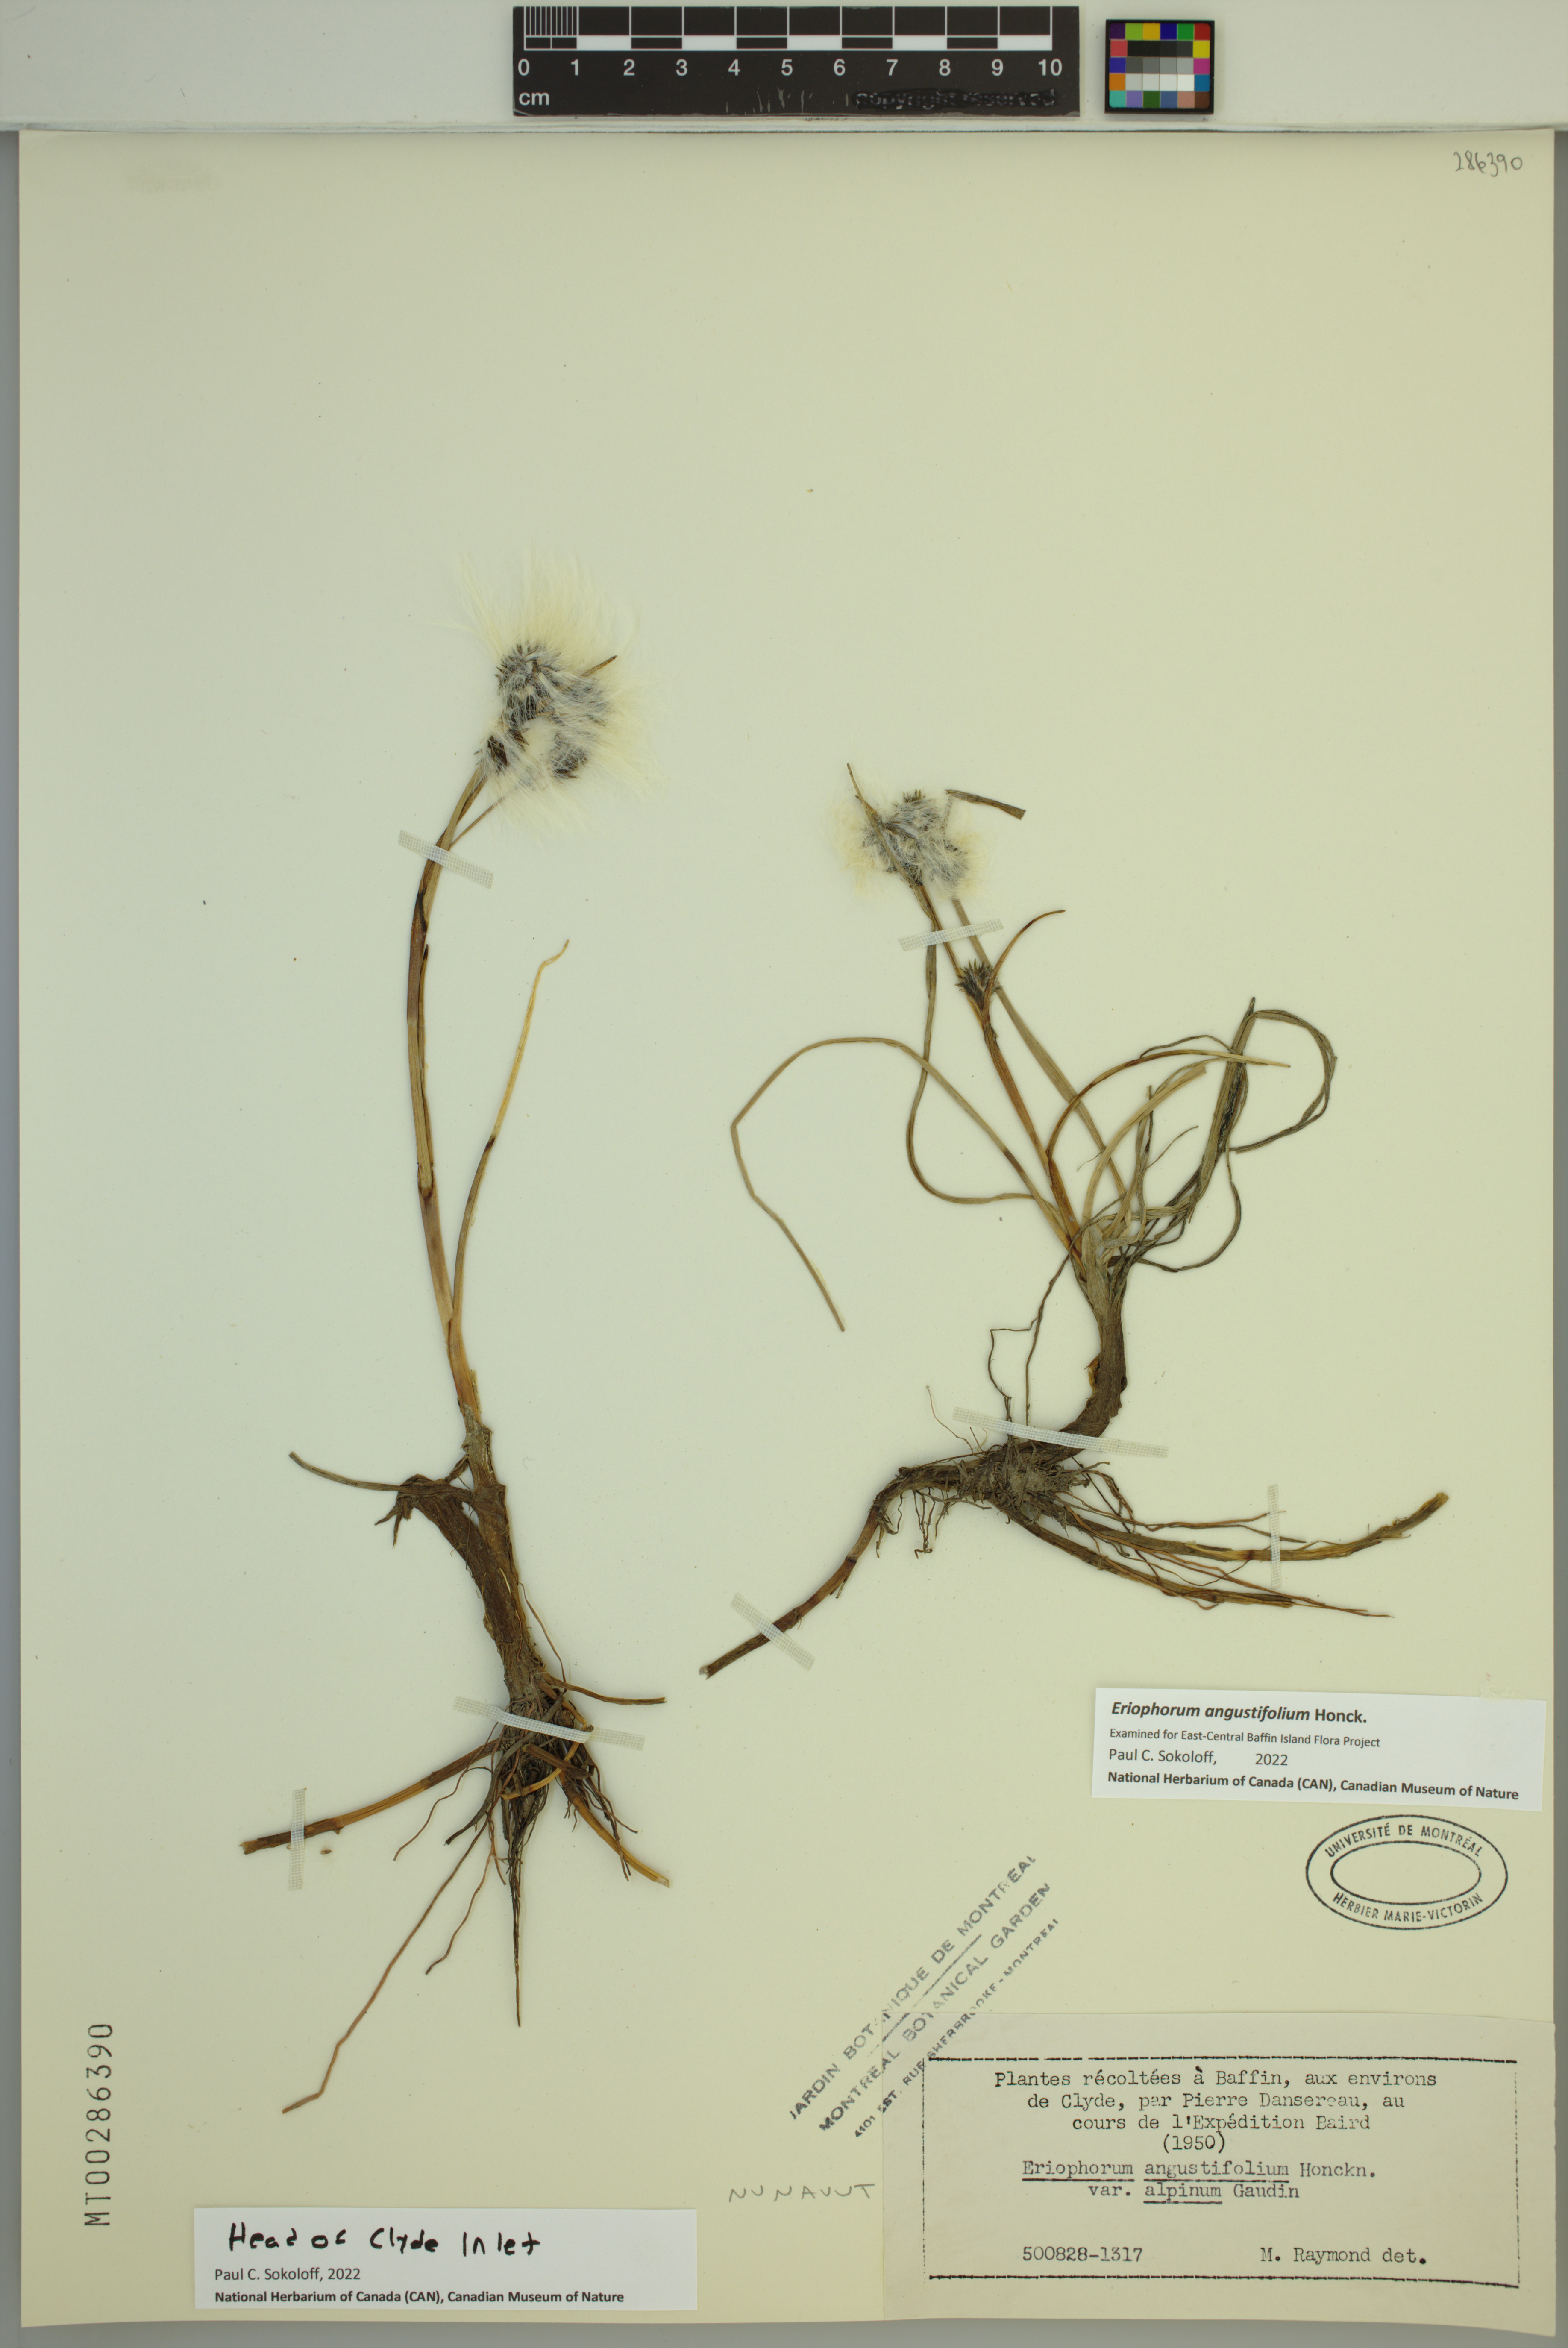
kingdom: Plantae
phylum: Tracheophyta
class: Liliopsida
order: Poales
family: Cyperaceae
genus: Eriophorum
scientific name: Eriophorum angustifolium
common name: Common cottongrass
